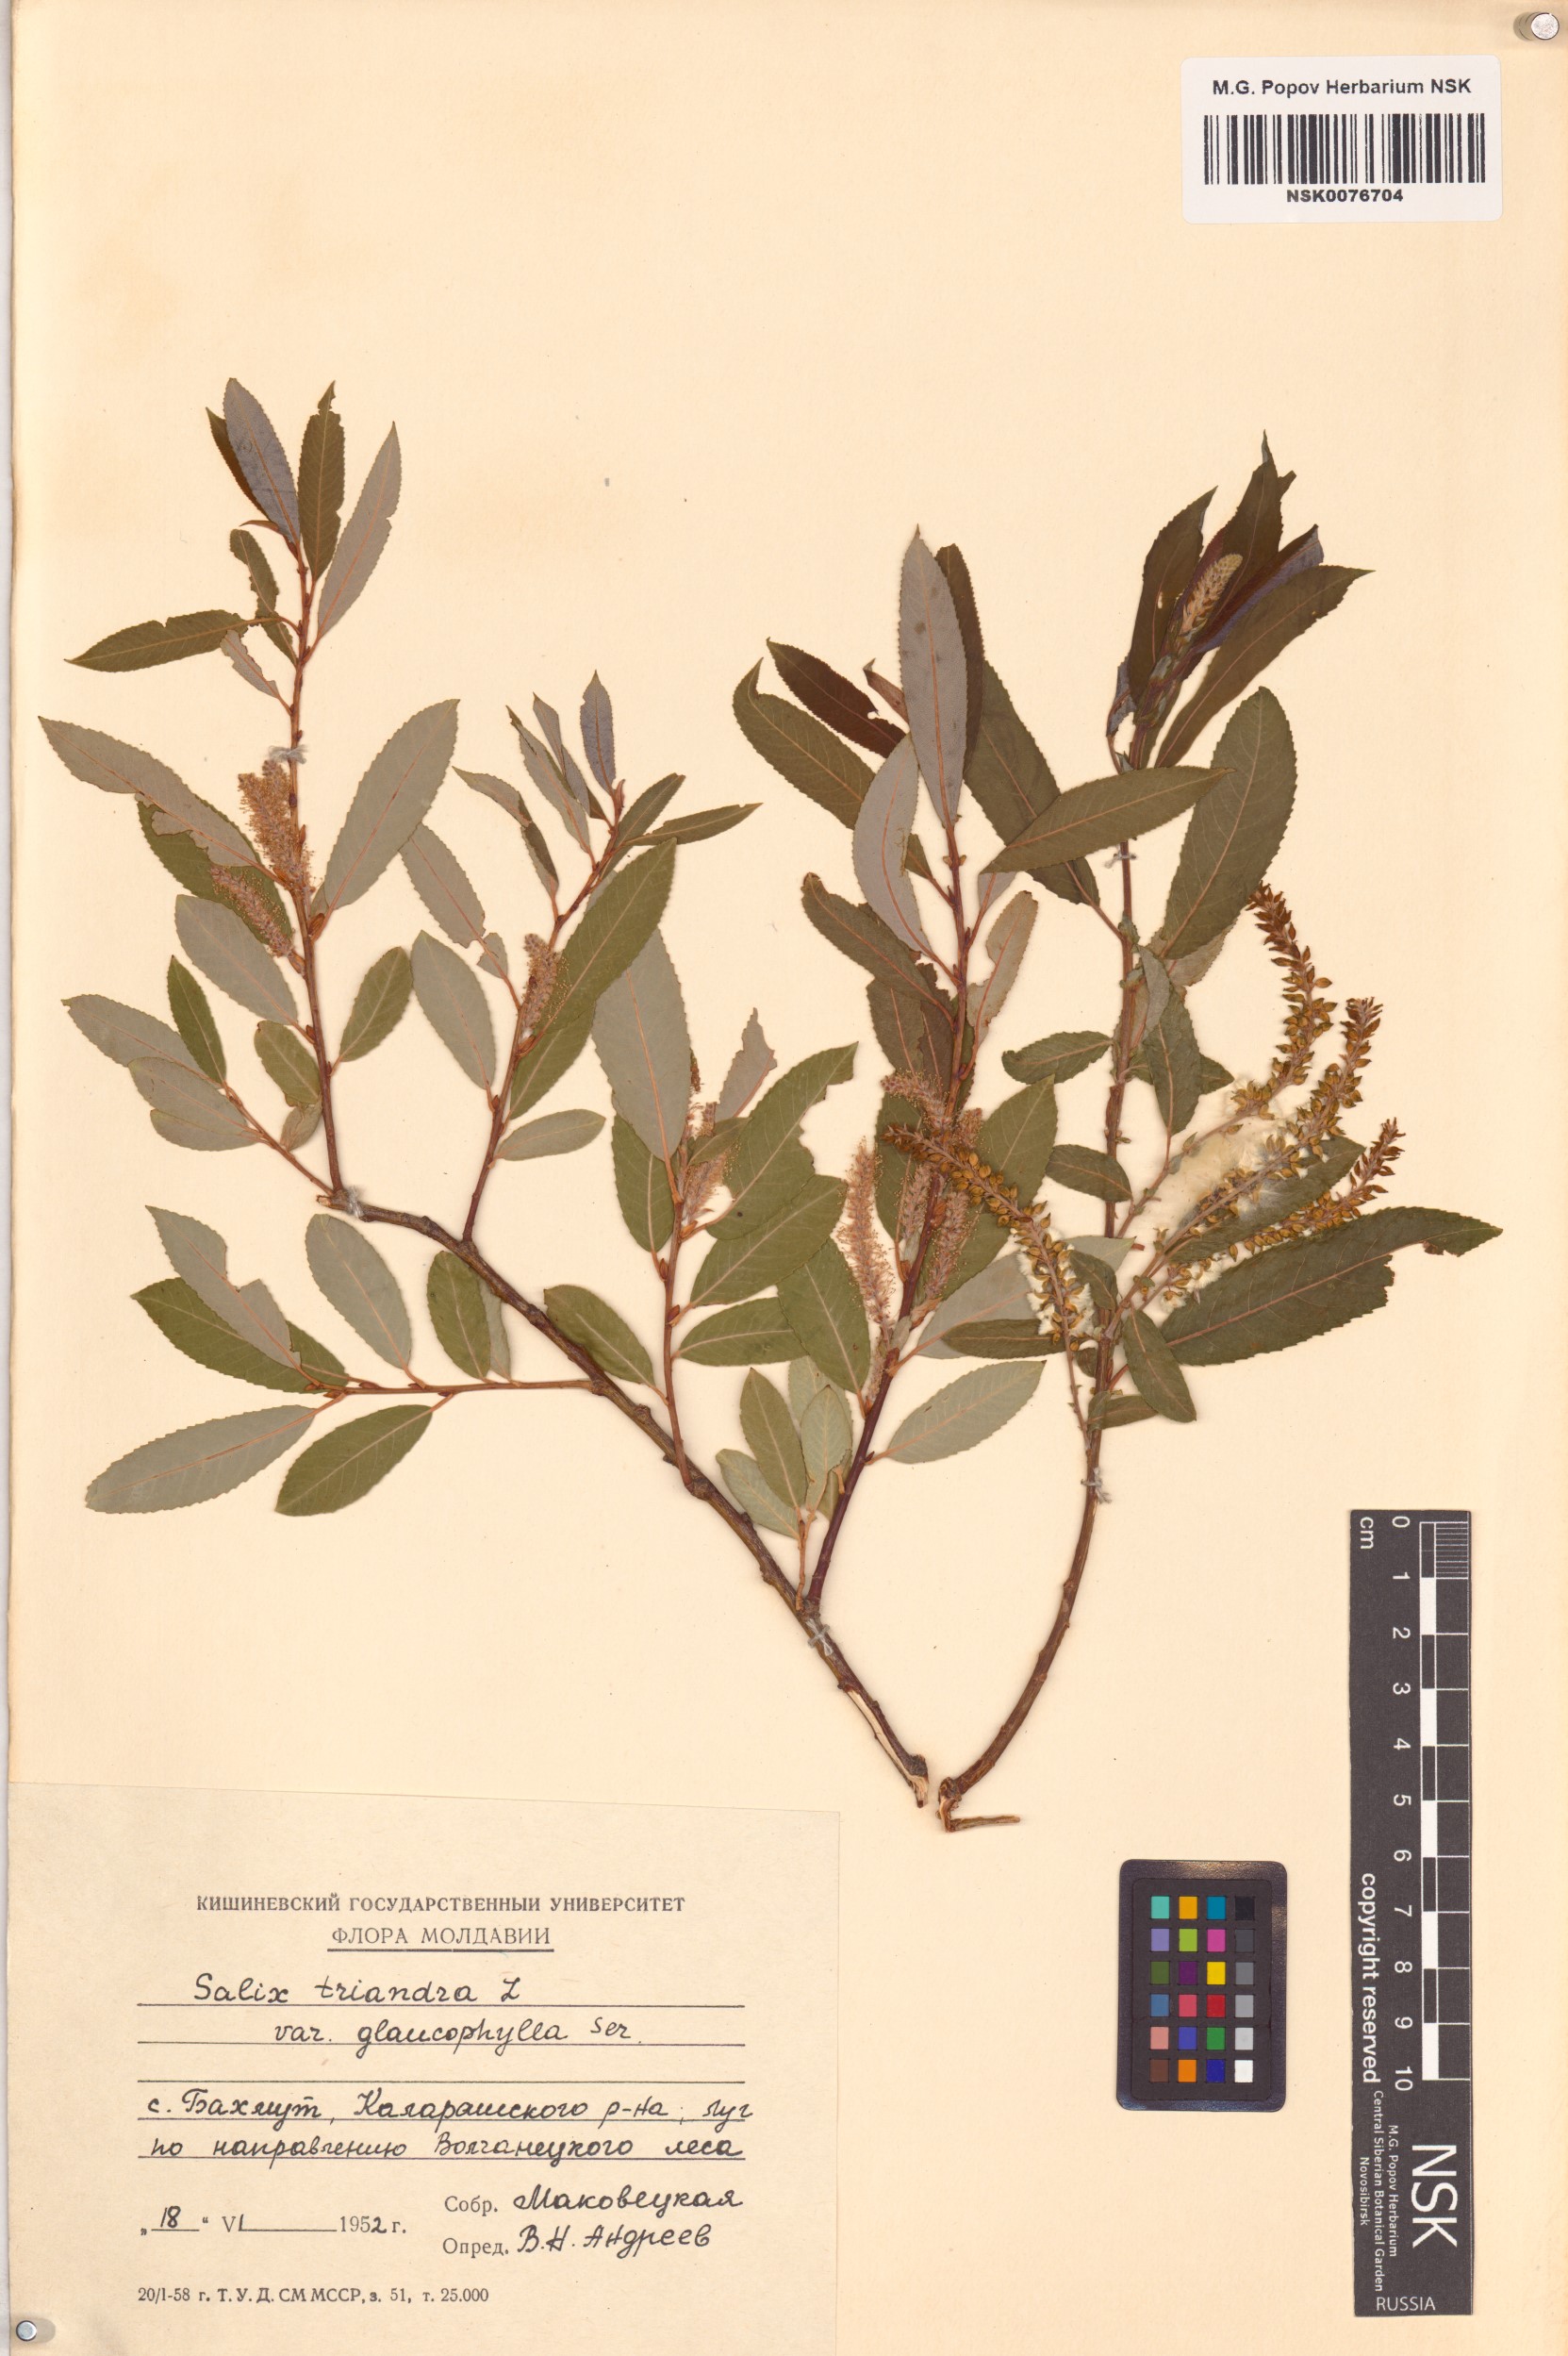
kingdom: Plantae
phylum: Tracheophyta
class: Magnoliopsida
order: Malpighiales
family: Salicaceae
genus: Salix
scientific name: Salix triandra
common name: Almond willow
